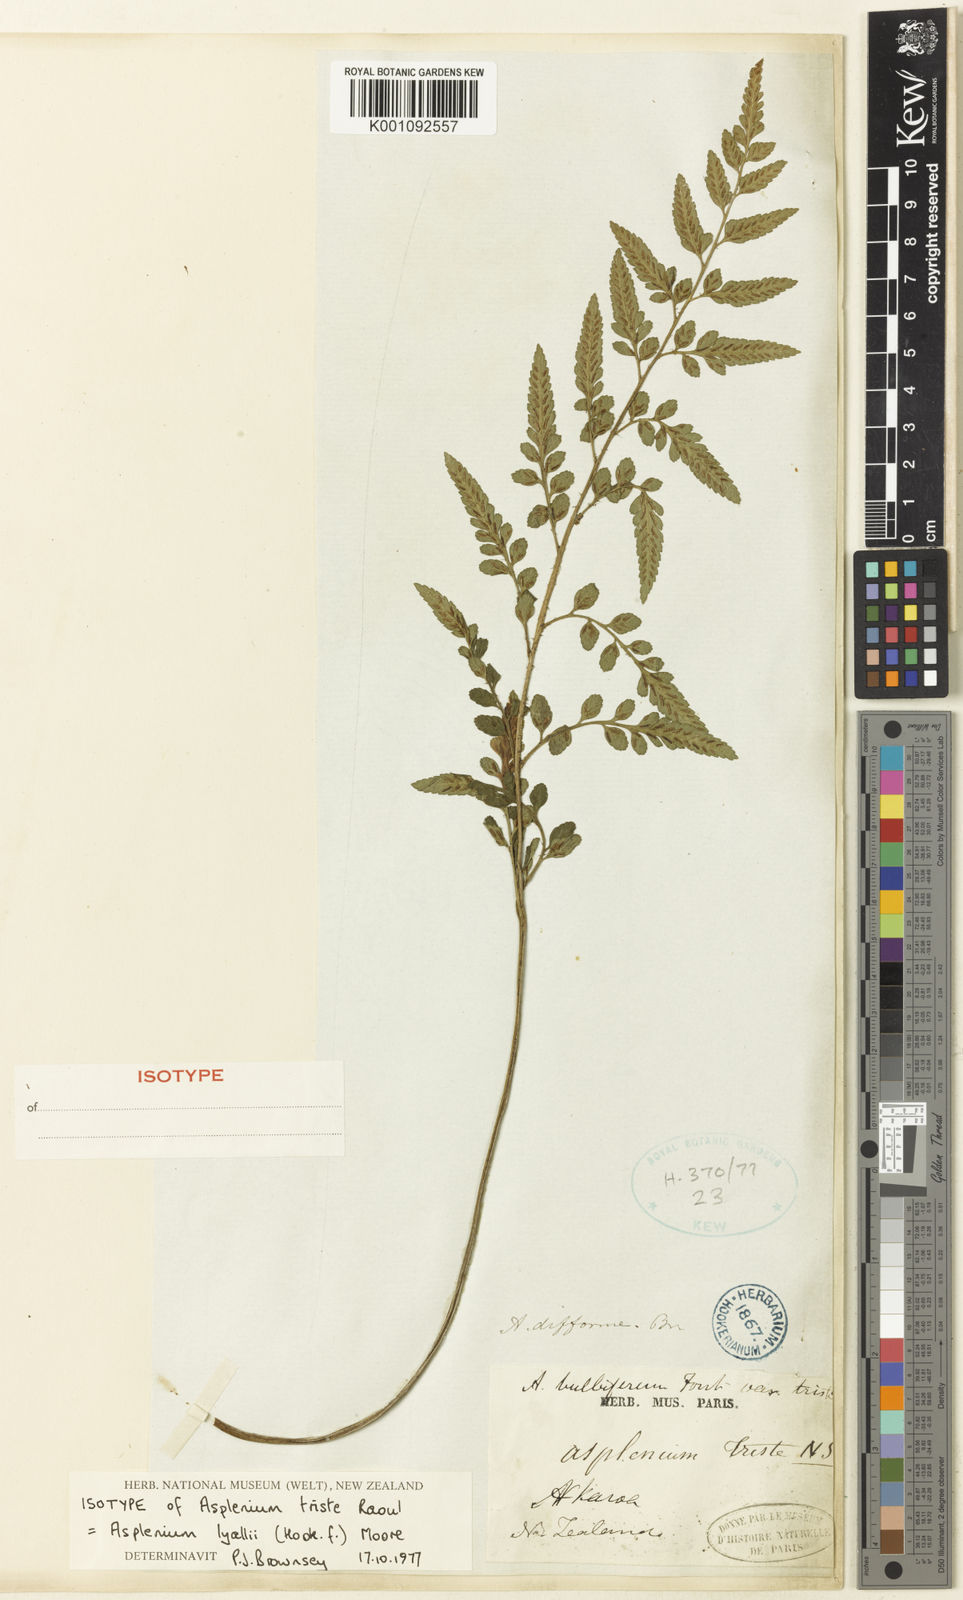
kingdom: Plantae
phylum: Tracheophyta
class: Polypodiopsida
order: Polypodiales
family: Aspleniaceae
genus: Asplenium
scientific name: Asplenium lyallii
